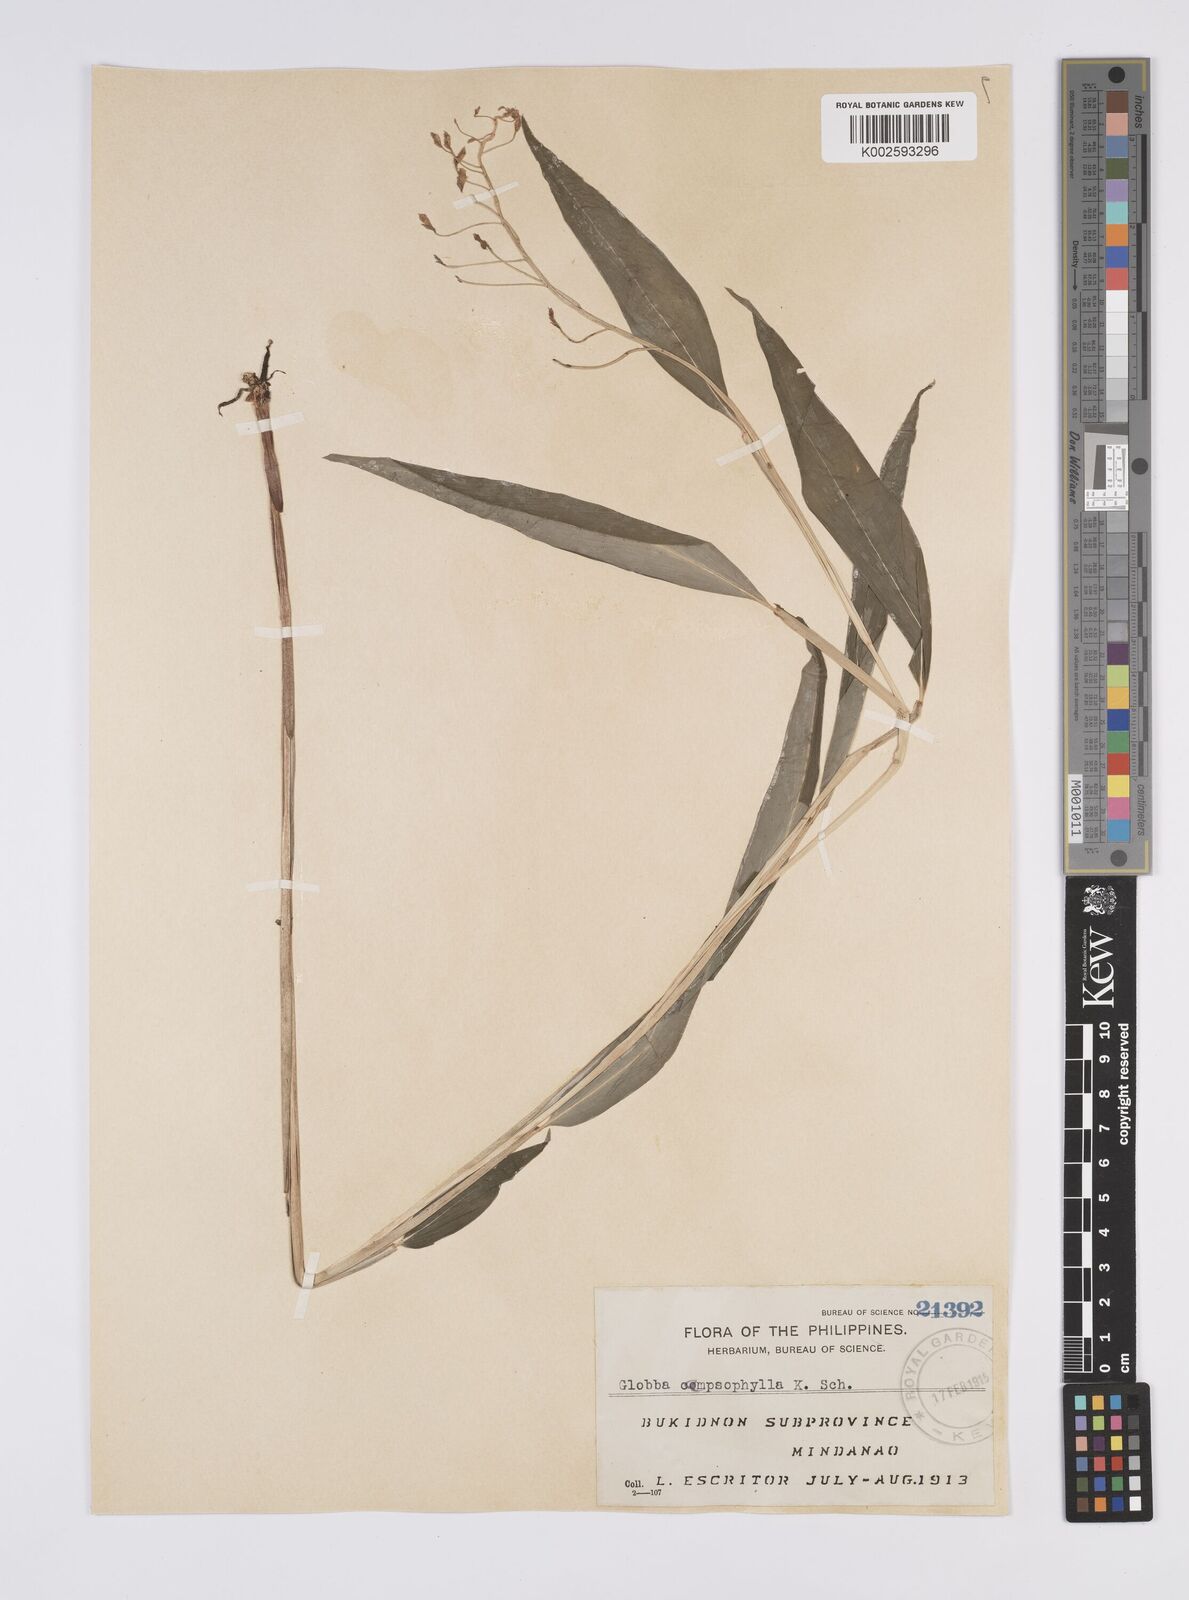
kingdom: Plantae
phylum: Tracheophyta
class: Liliopsida
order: Zingiberales
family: Zingiberaceae
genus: Globba
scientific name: Globba campsophylla
